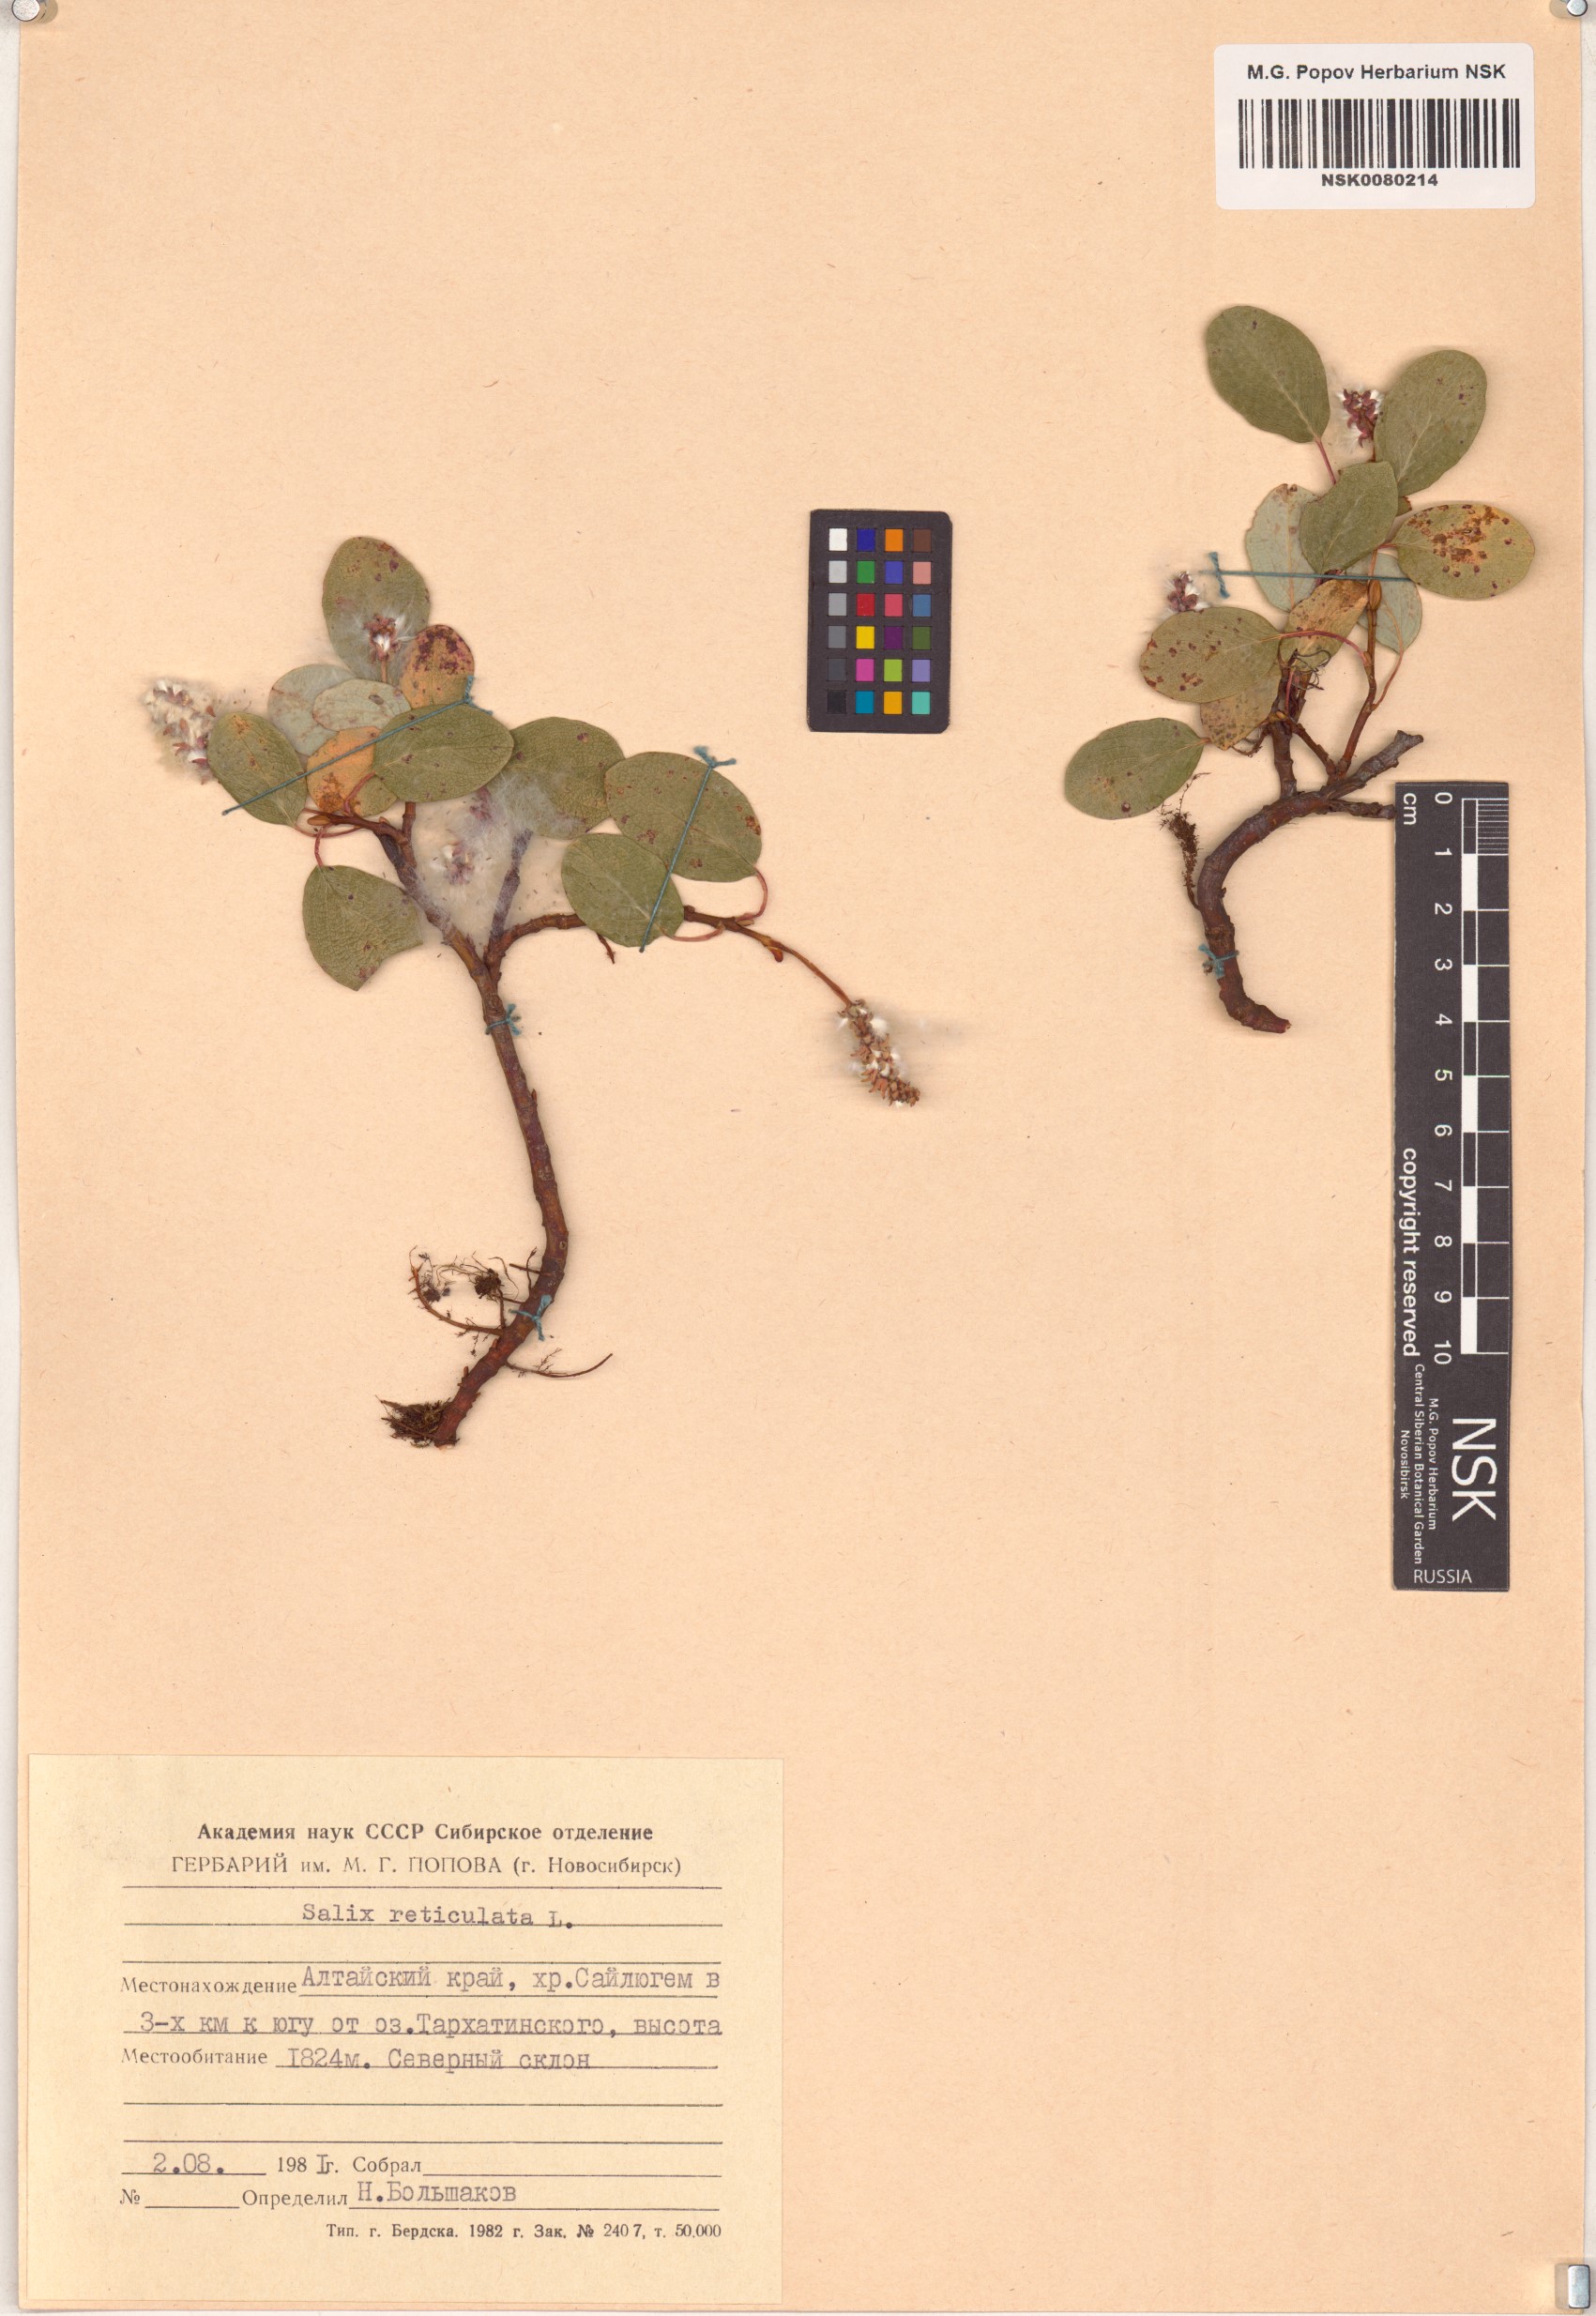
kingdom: Plantae
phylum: Tracheophyta
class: Magnoliopsida
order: Malpighiales
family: Salicaceae
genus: Salix
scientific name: Salix reticulata
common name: Net-leaved willow
